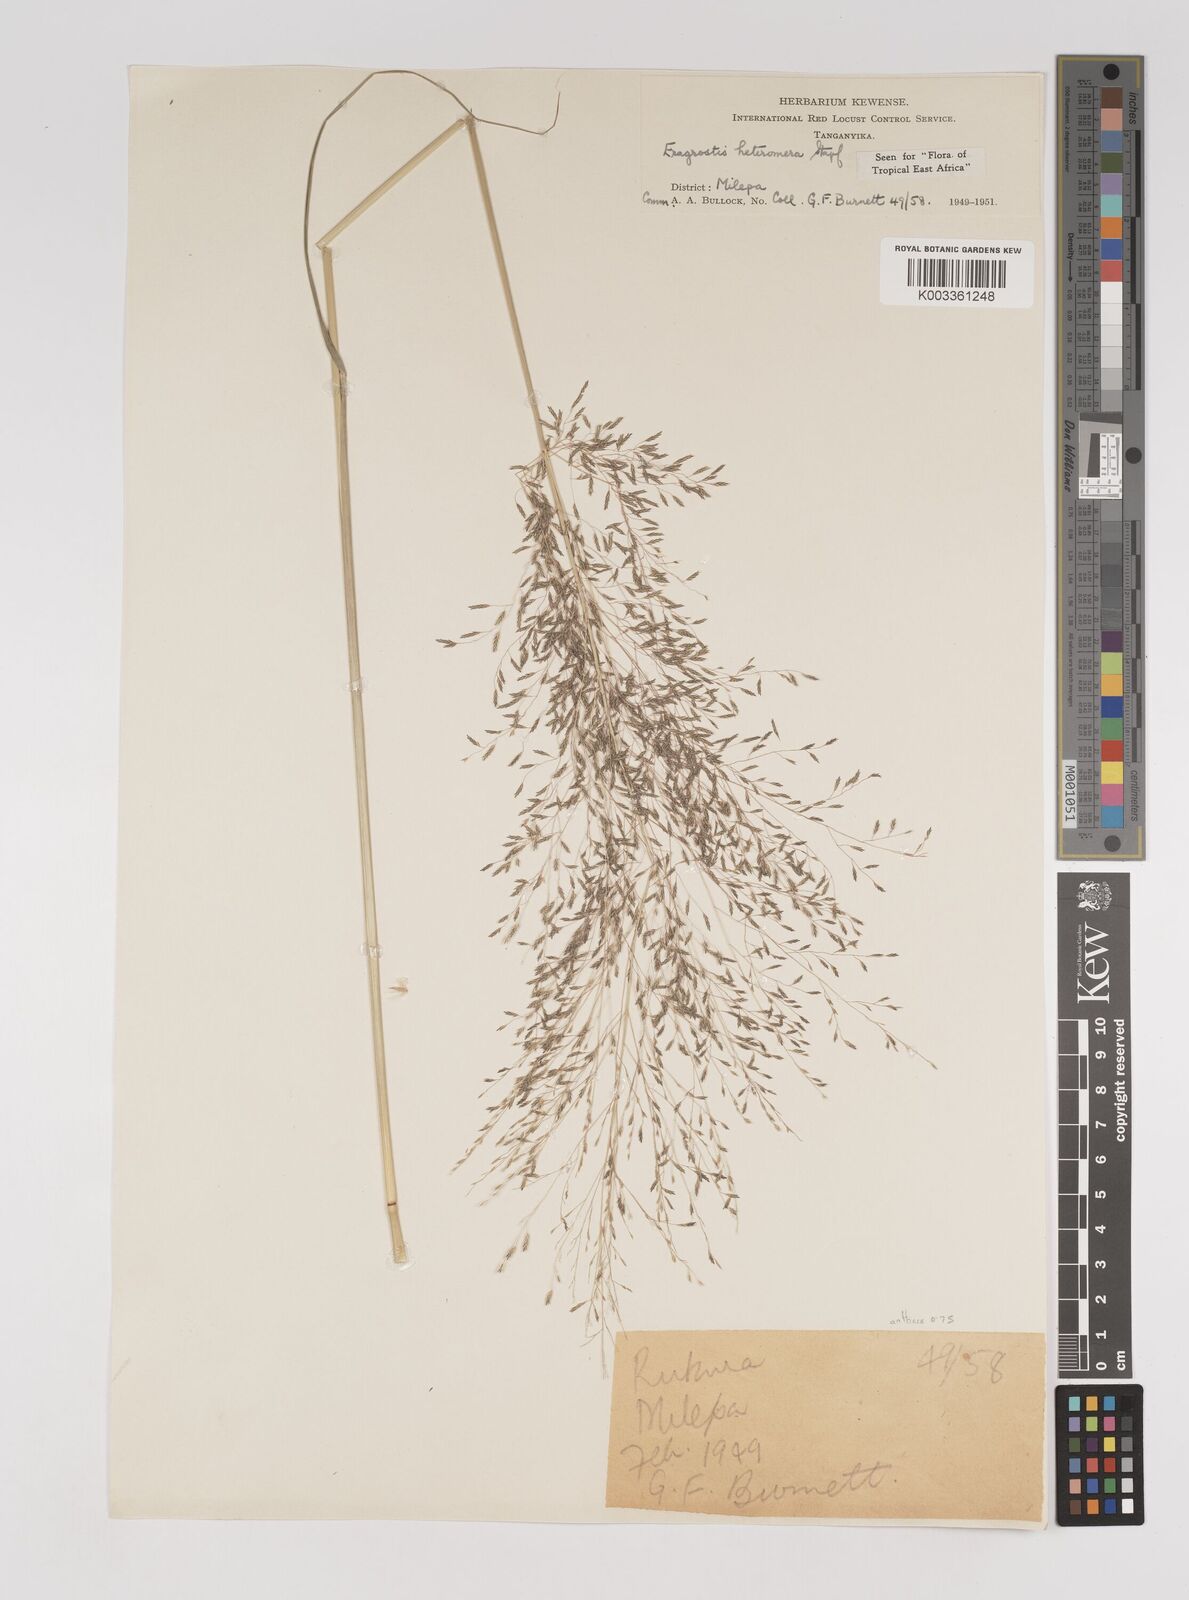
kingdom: Plantae
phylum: Tracheophyta
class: Liliopsida
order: Poales
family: Poaceae
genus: Eragrostis
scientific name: Eragrostis heteromera
